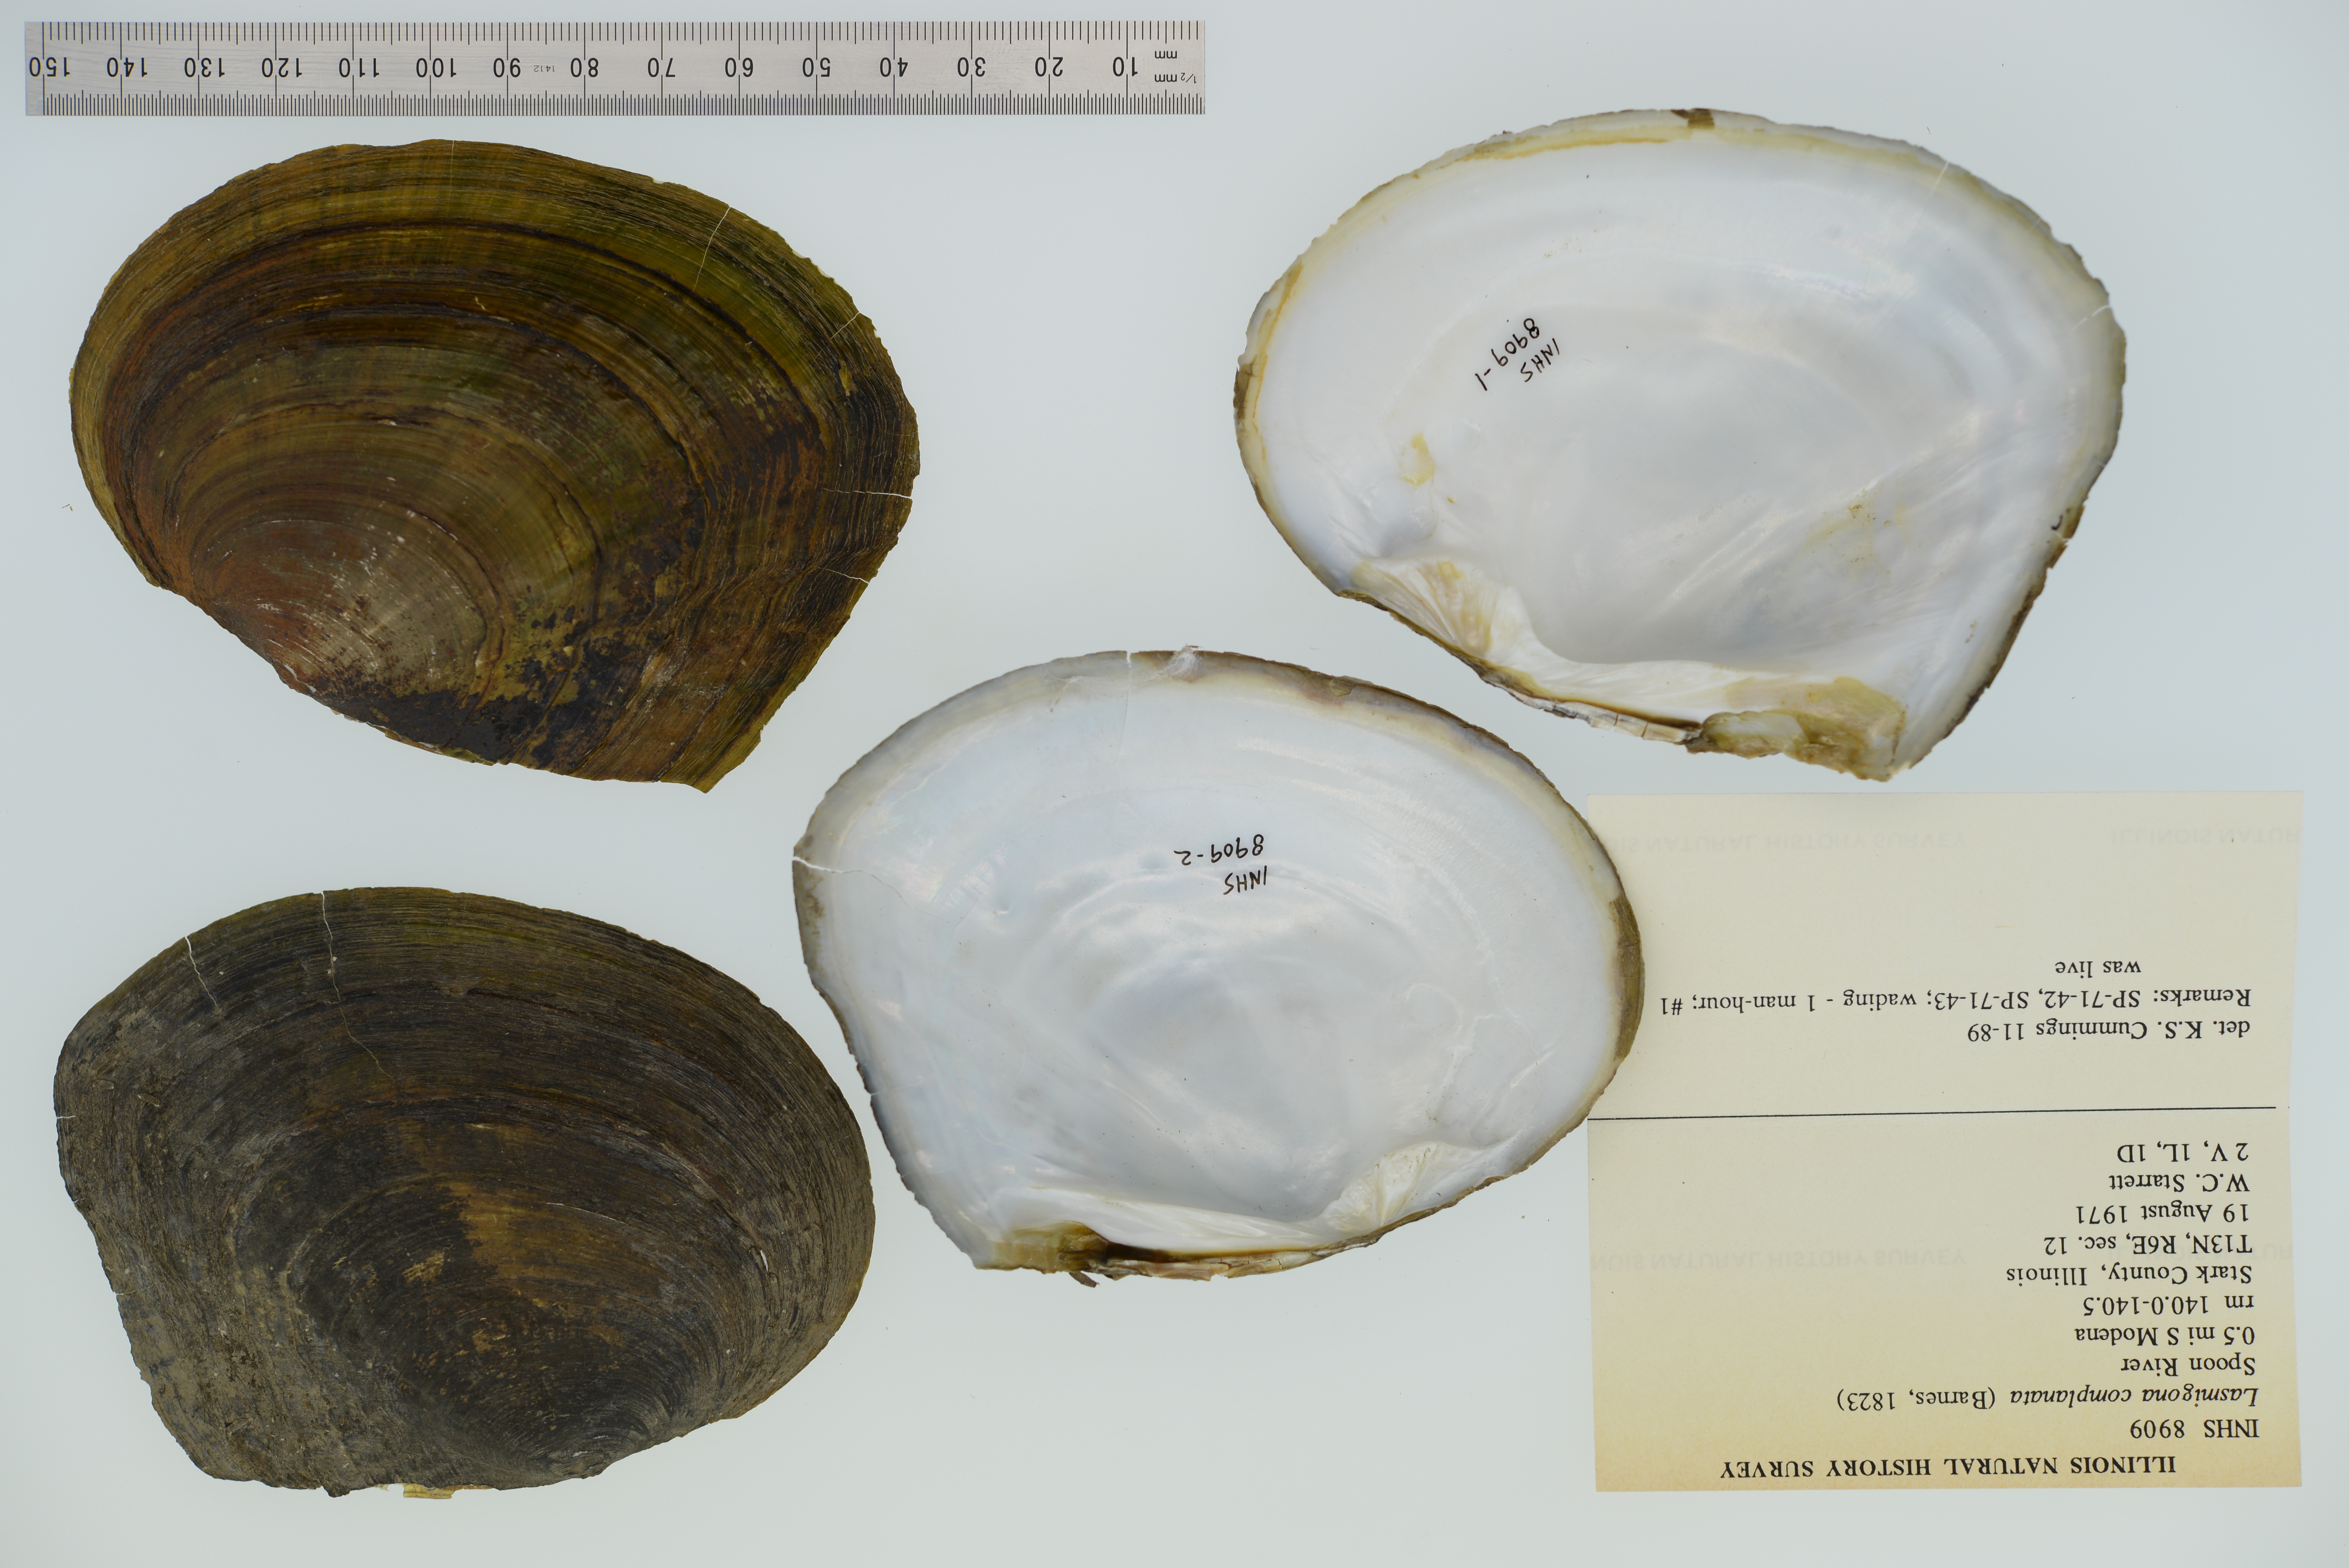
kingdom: Animalia
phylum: Mollusca
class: Bivalvia
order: Unionida
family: Unionidae
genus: Lasmigona
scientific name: Lasmigona complanata
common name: White heelsplitter
